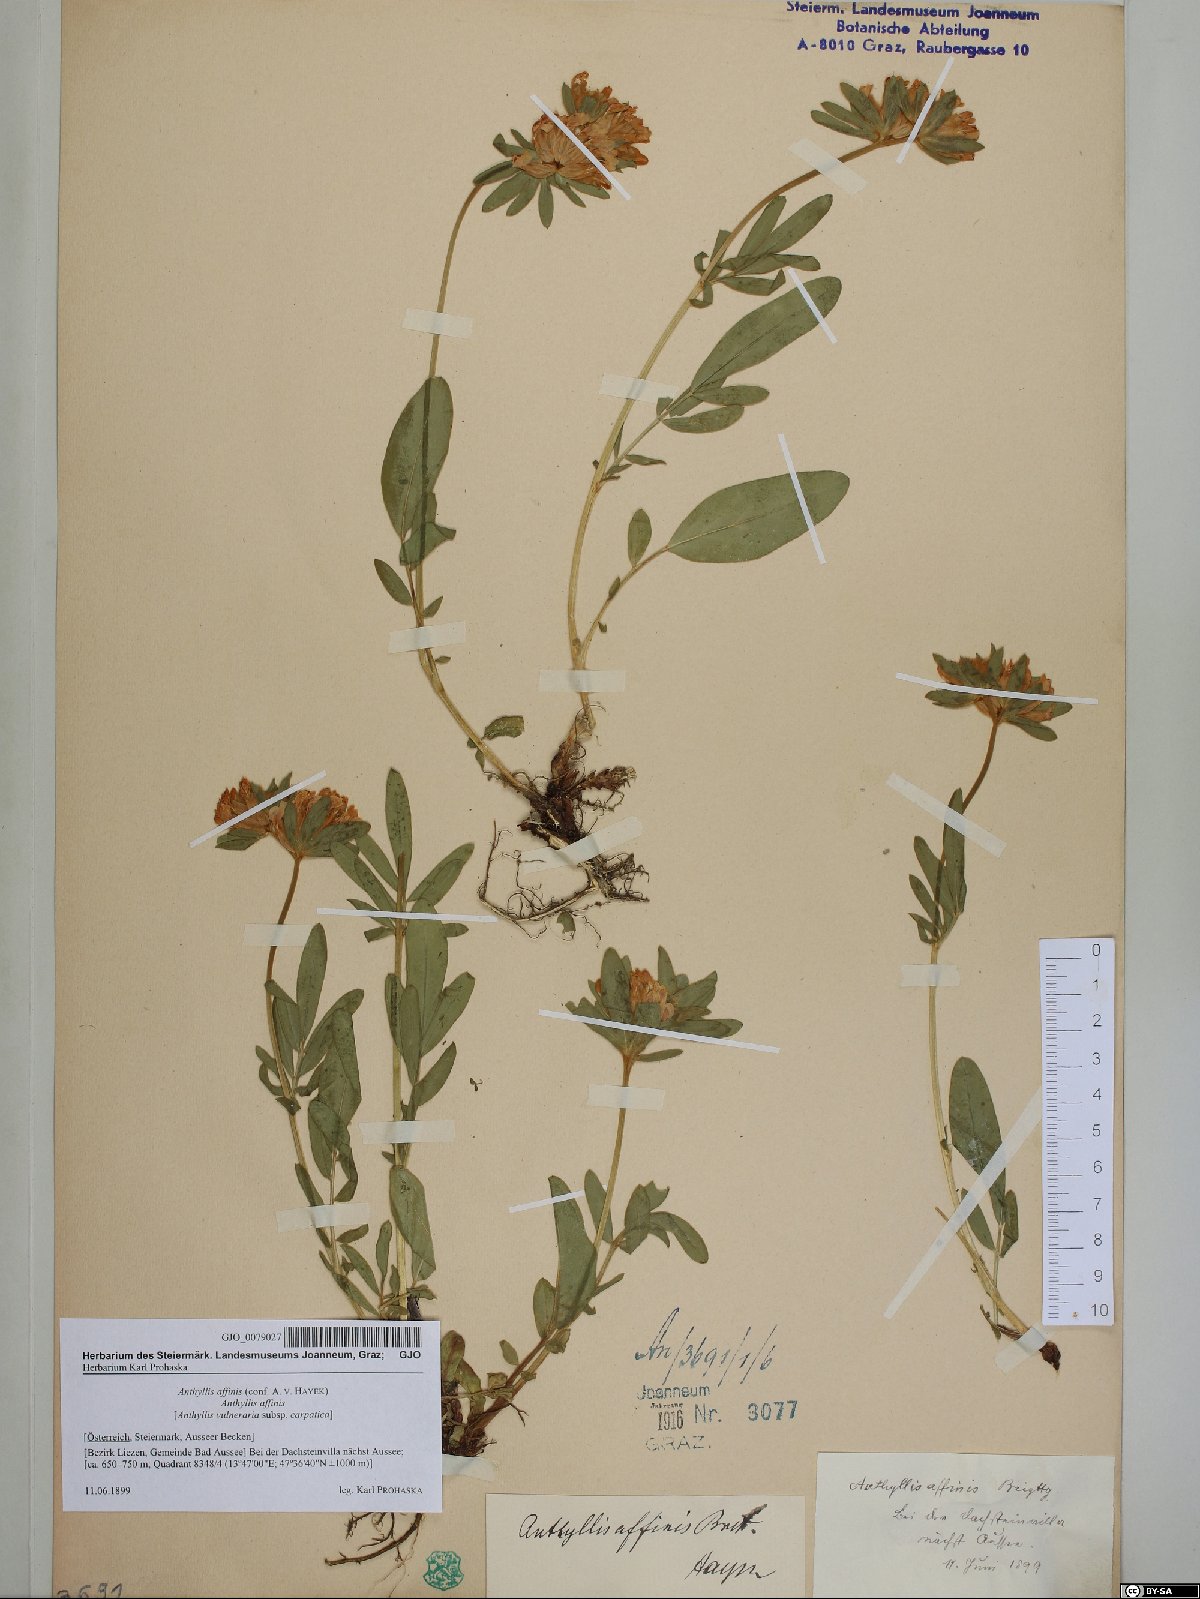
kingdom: Plantae
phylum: Tracheophyta
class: Magnoliopsida
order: Fabales
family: Fabaceae
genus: Anthyllis
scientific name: Anthyllis vulneraria
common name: Kidney vetch
